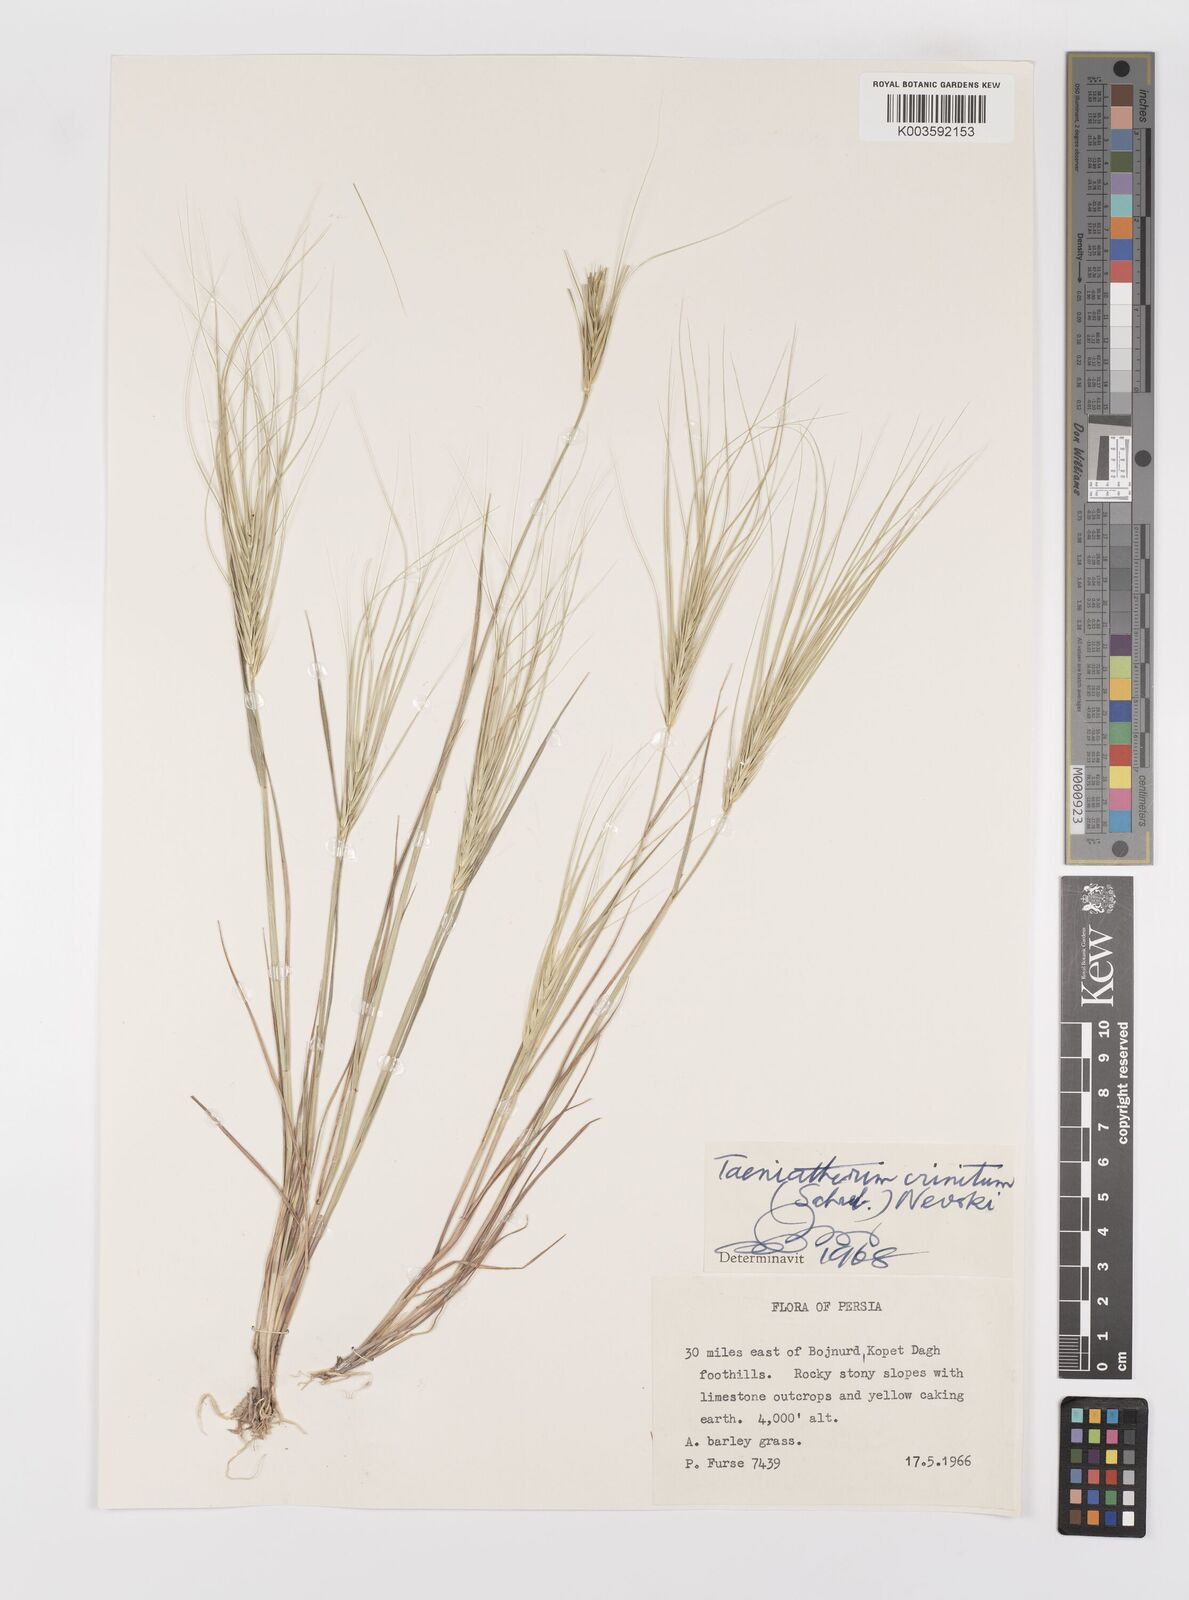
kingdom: Plantae
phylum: Tracheophyta
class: Liliopsida
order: Poales
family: Poaceae
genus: Taeniatherum
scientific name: Taeniatherum caput-medusae
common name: Medusahead
